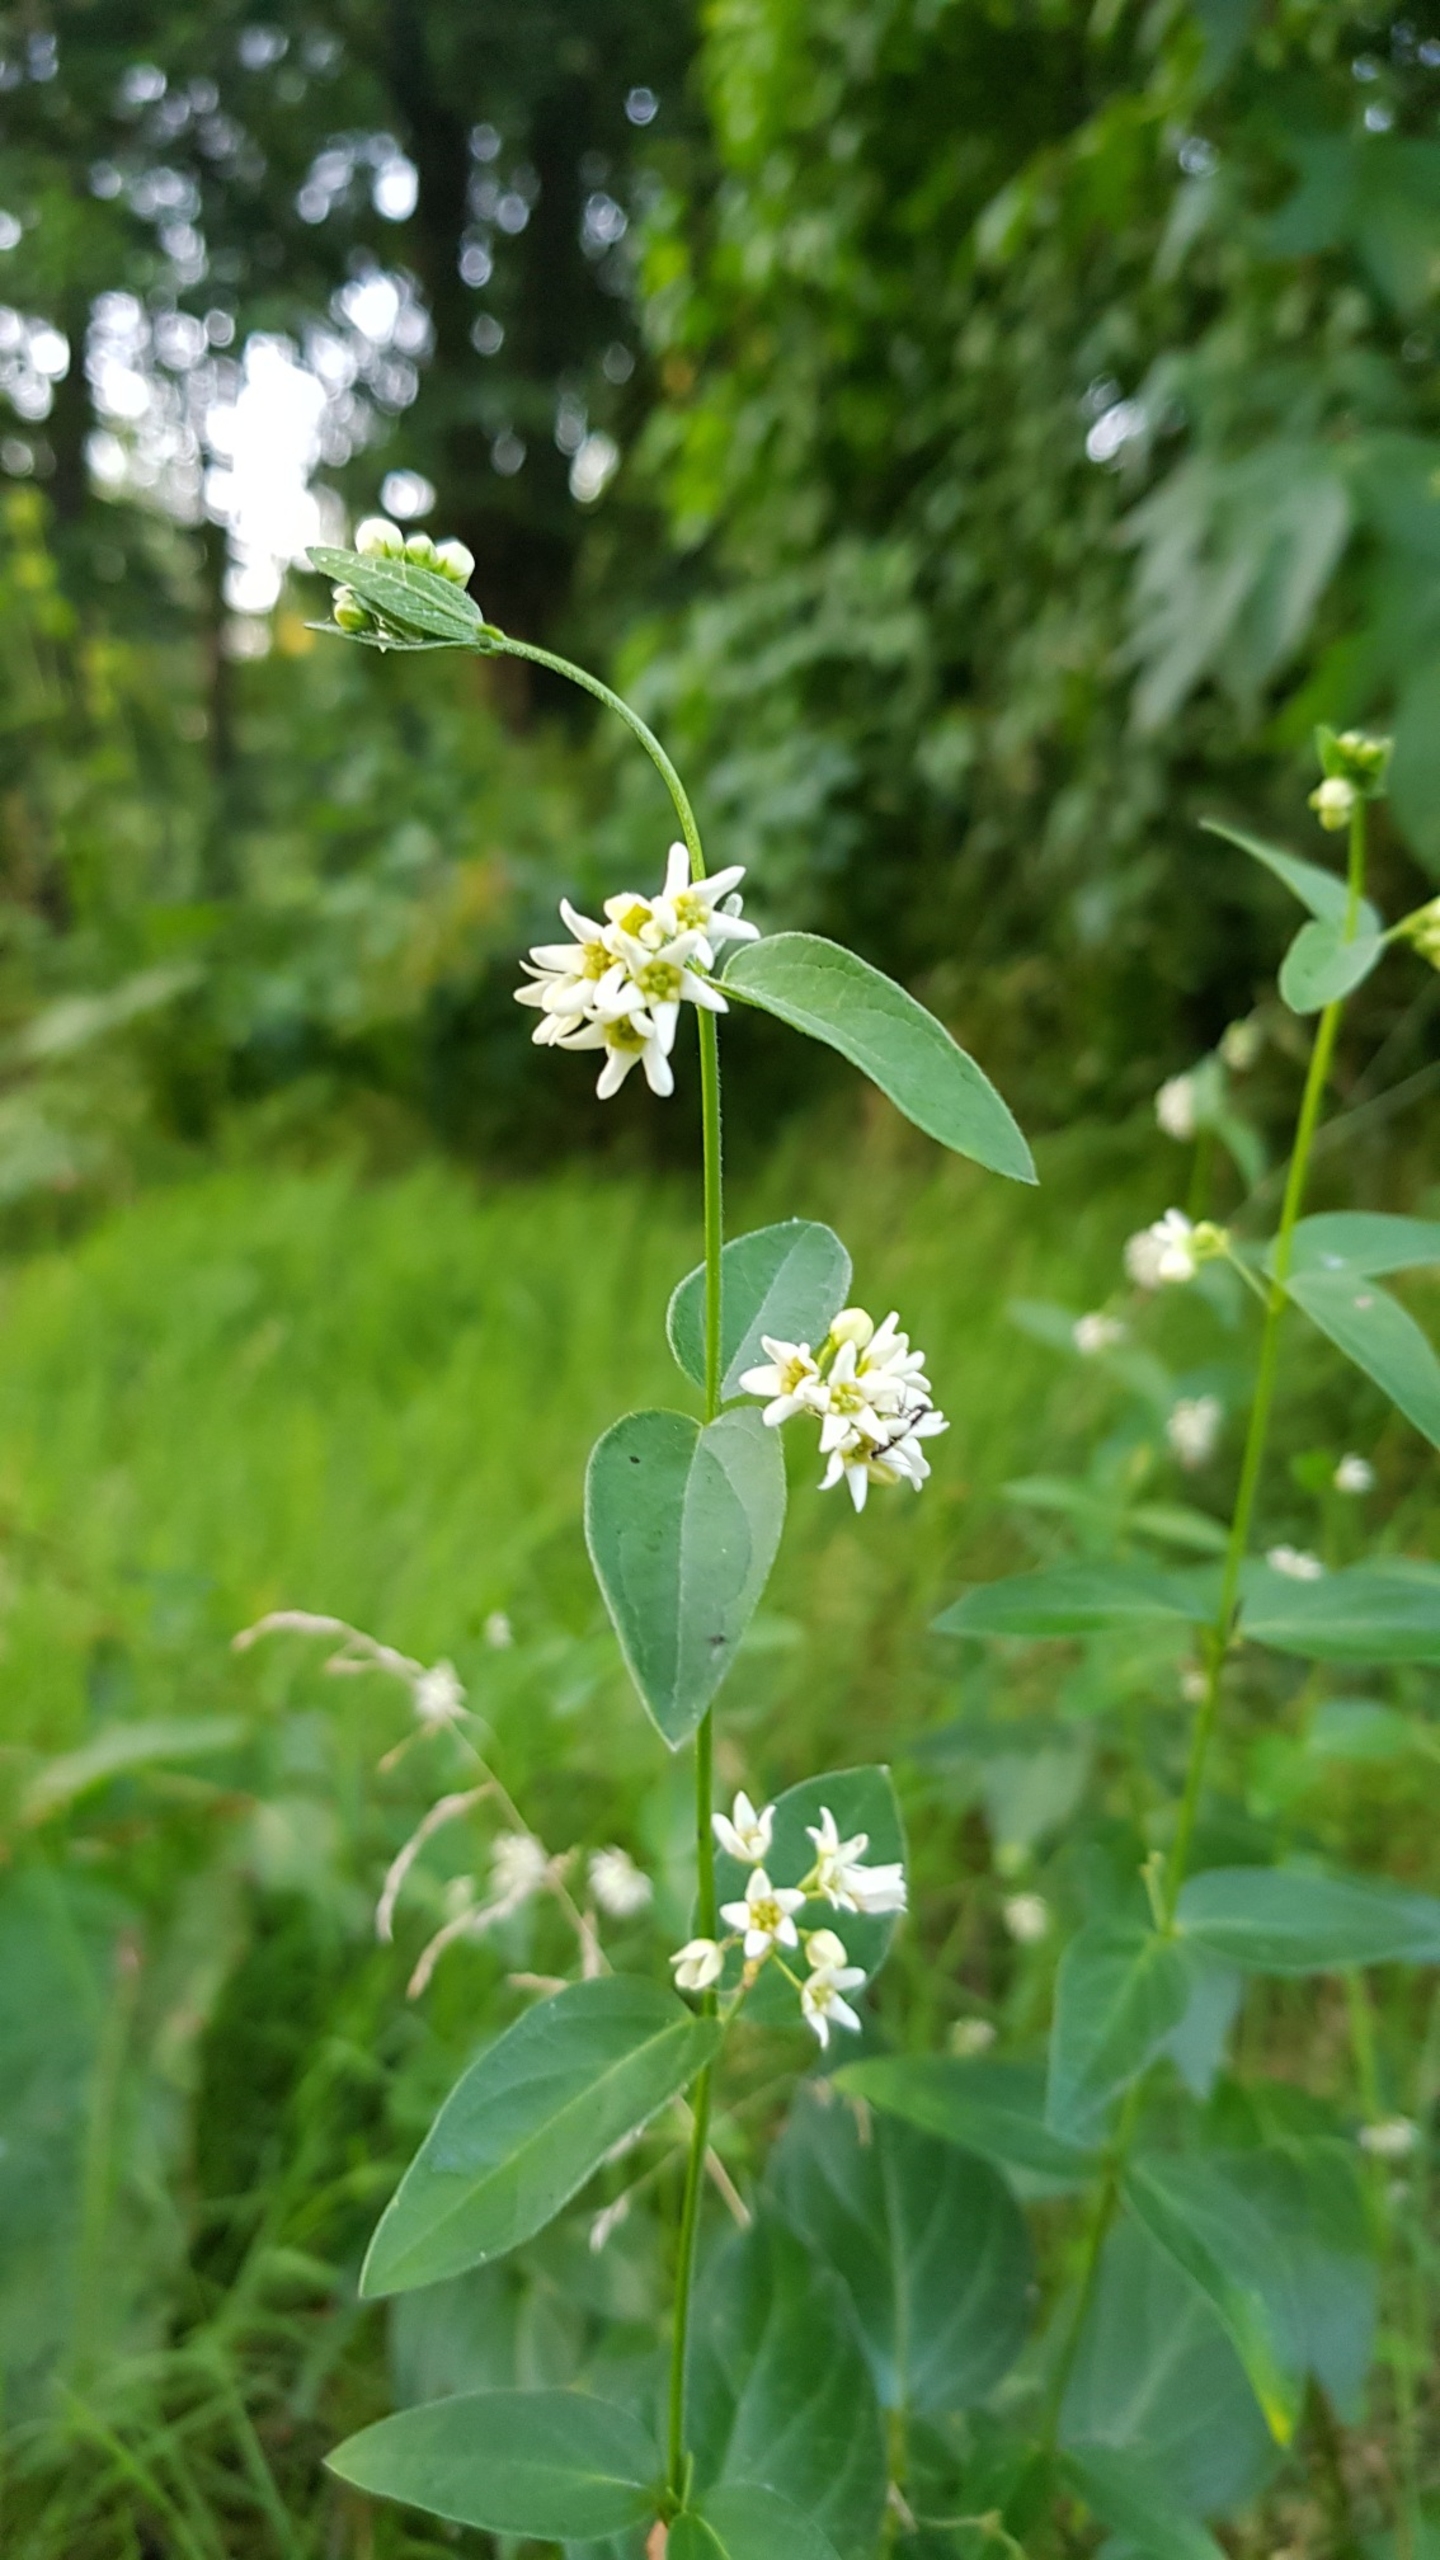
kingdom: Plantae
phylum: Tracheophyta
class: Magnoliopsida
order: Gentianales
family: Apocynaceae
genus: Vincetoxicum
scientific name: Vincetoxicum hirundinaria
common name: Svalerod
